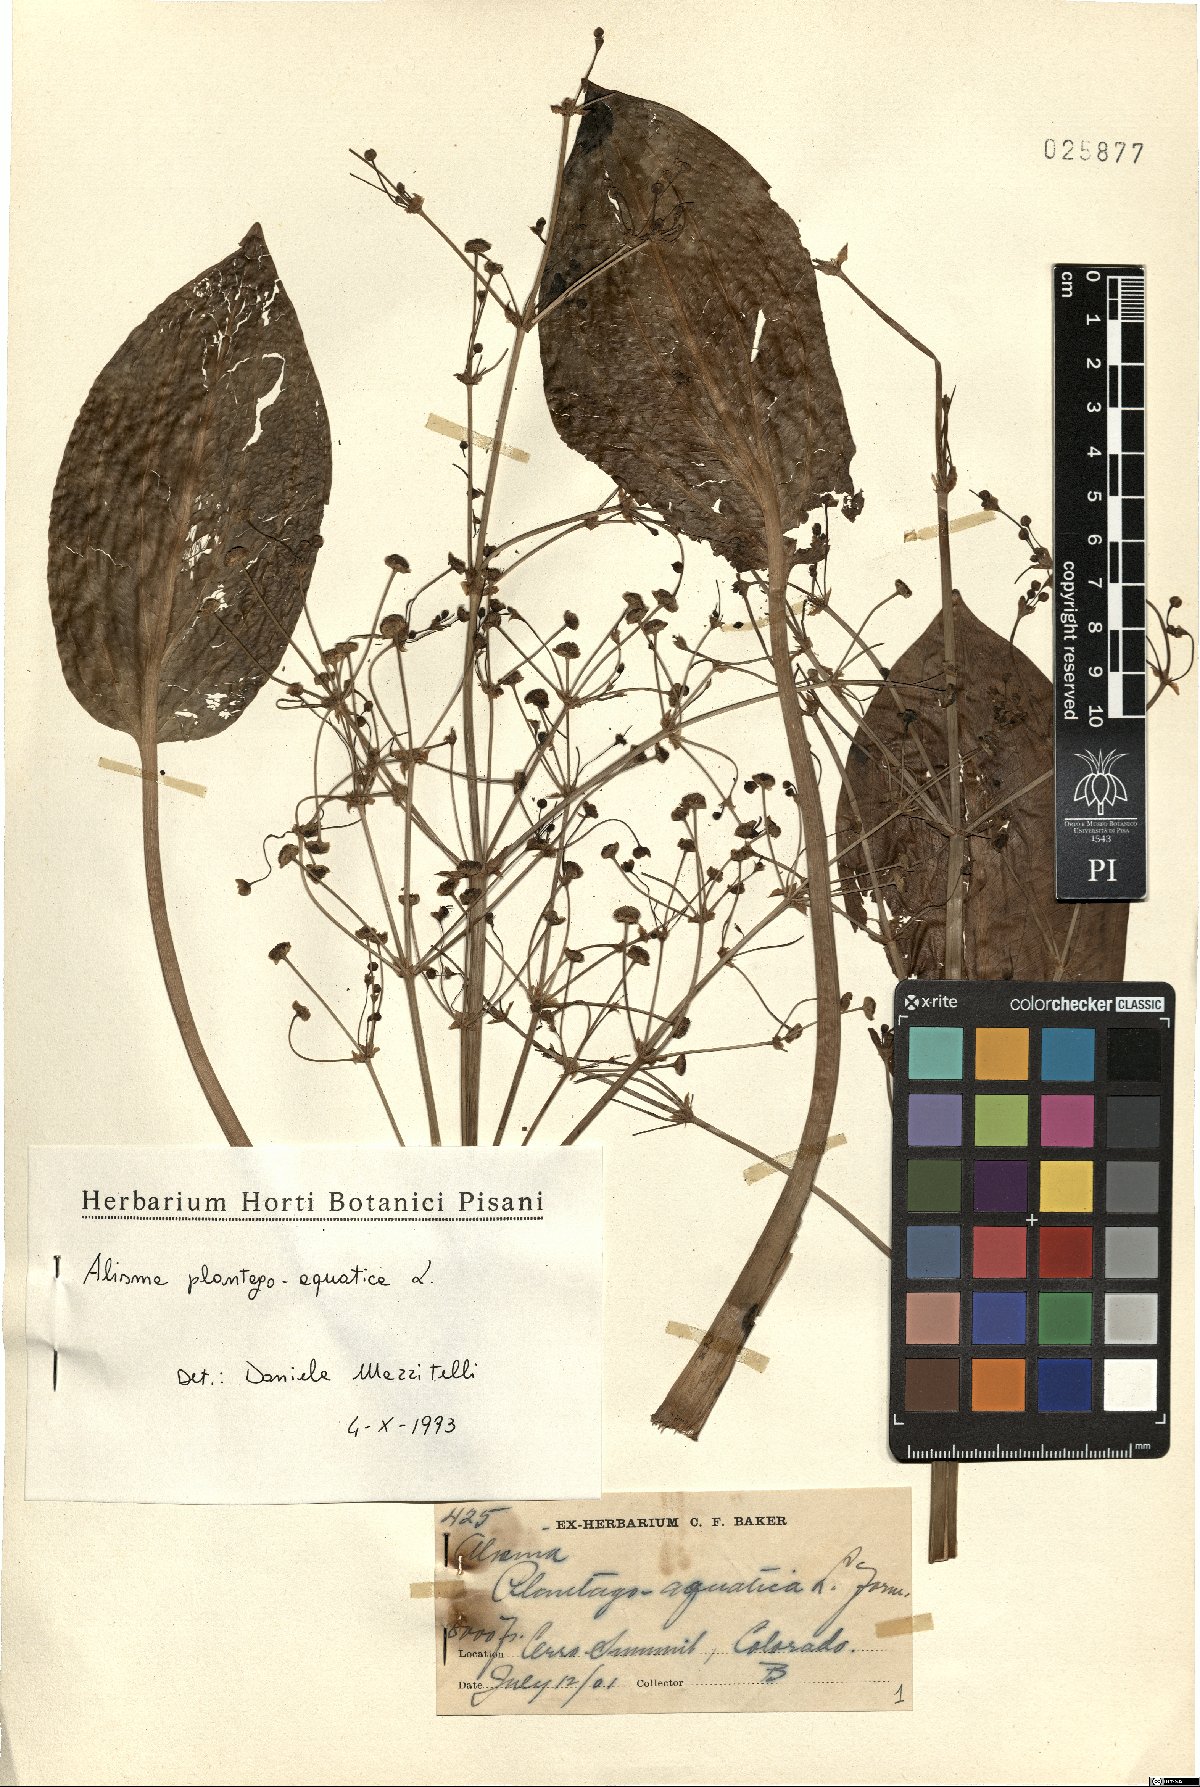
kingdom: Plantae
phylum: Tracheophyta
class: Liliopsida
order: Alismatales
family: Alismataceae
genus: Alisma
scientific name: Alisma plantago-aquatica
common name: Water-plantain
